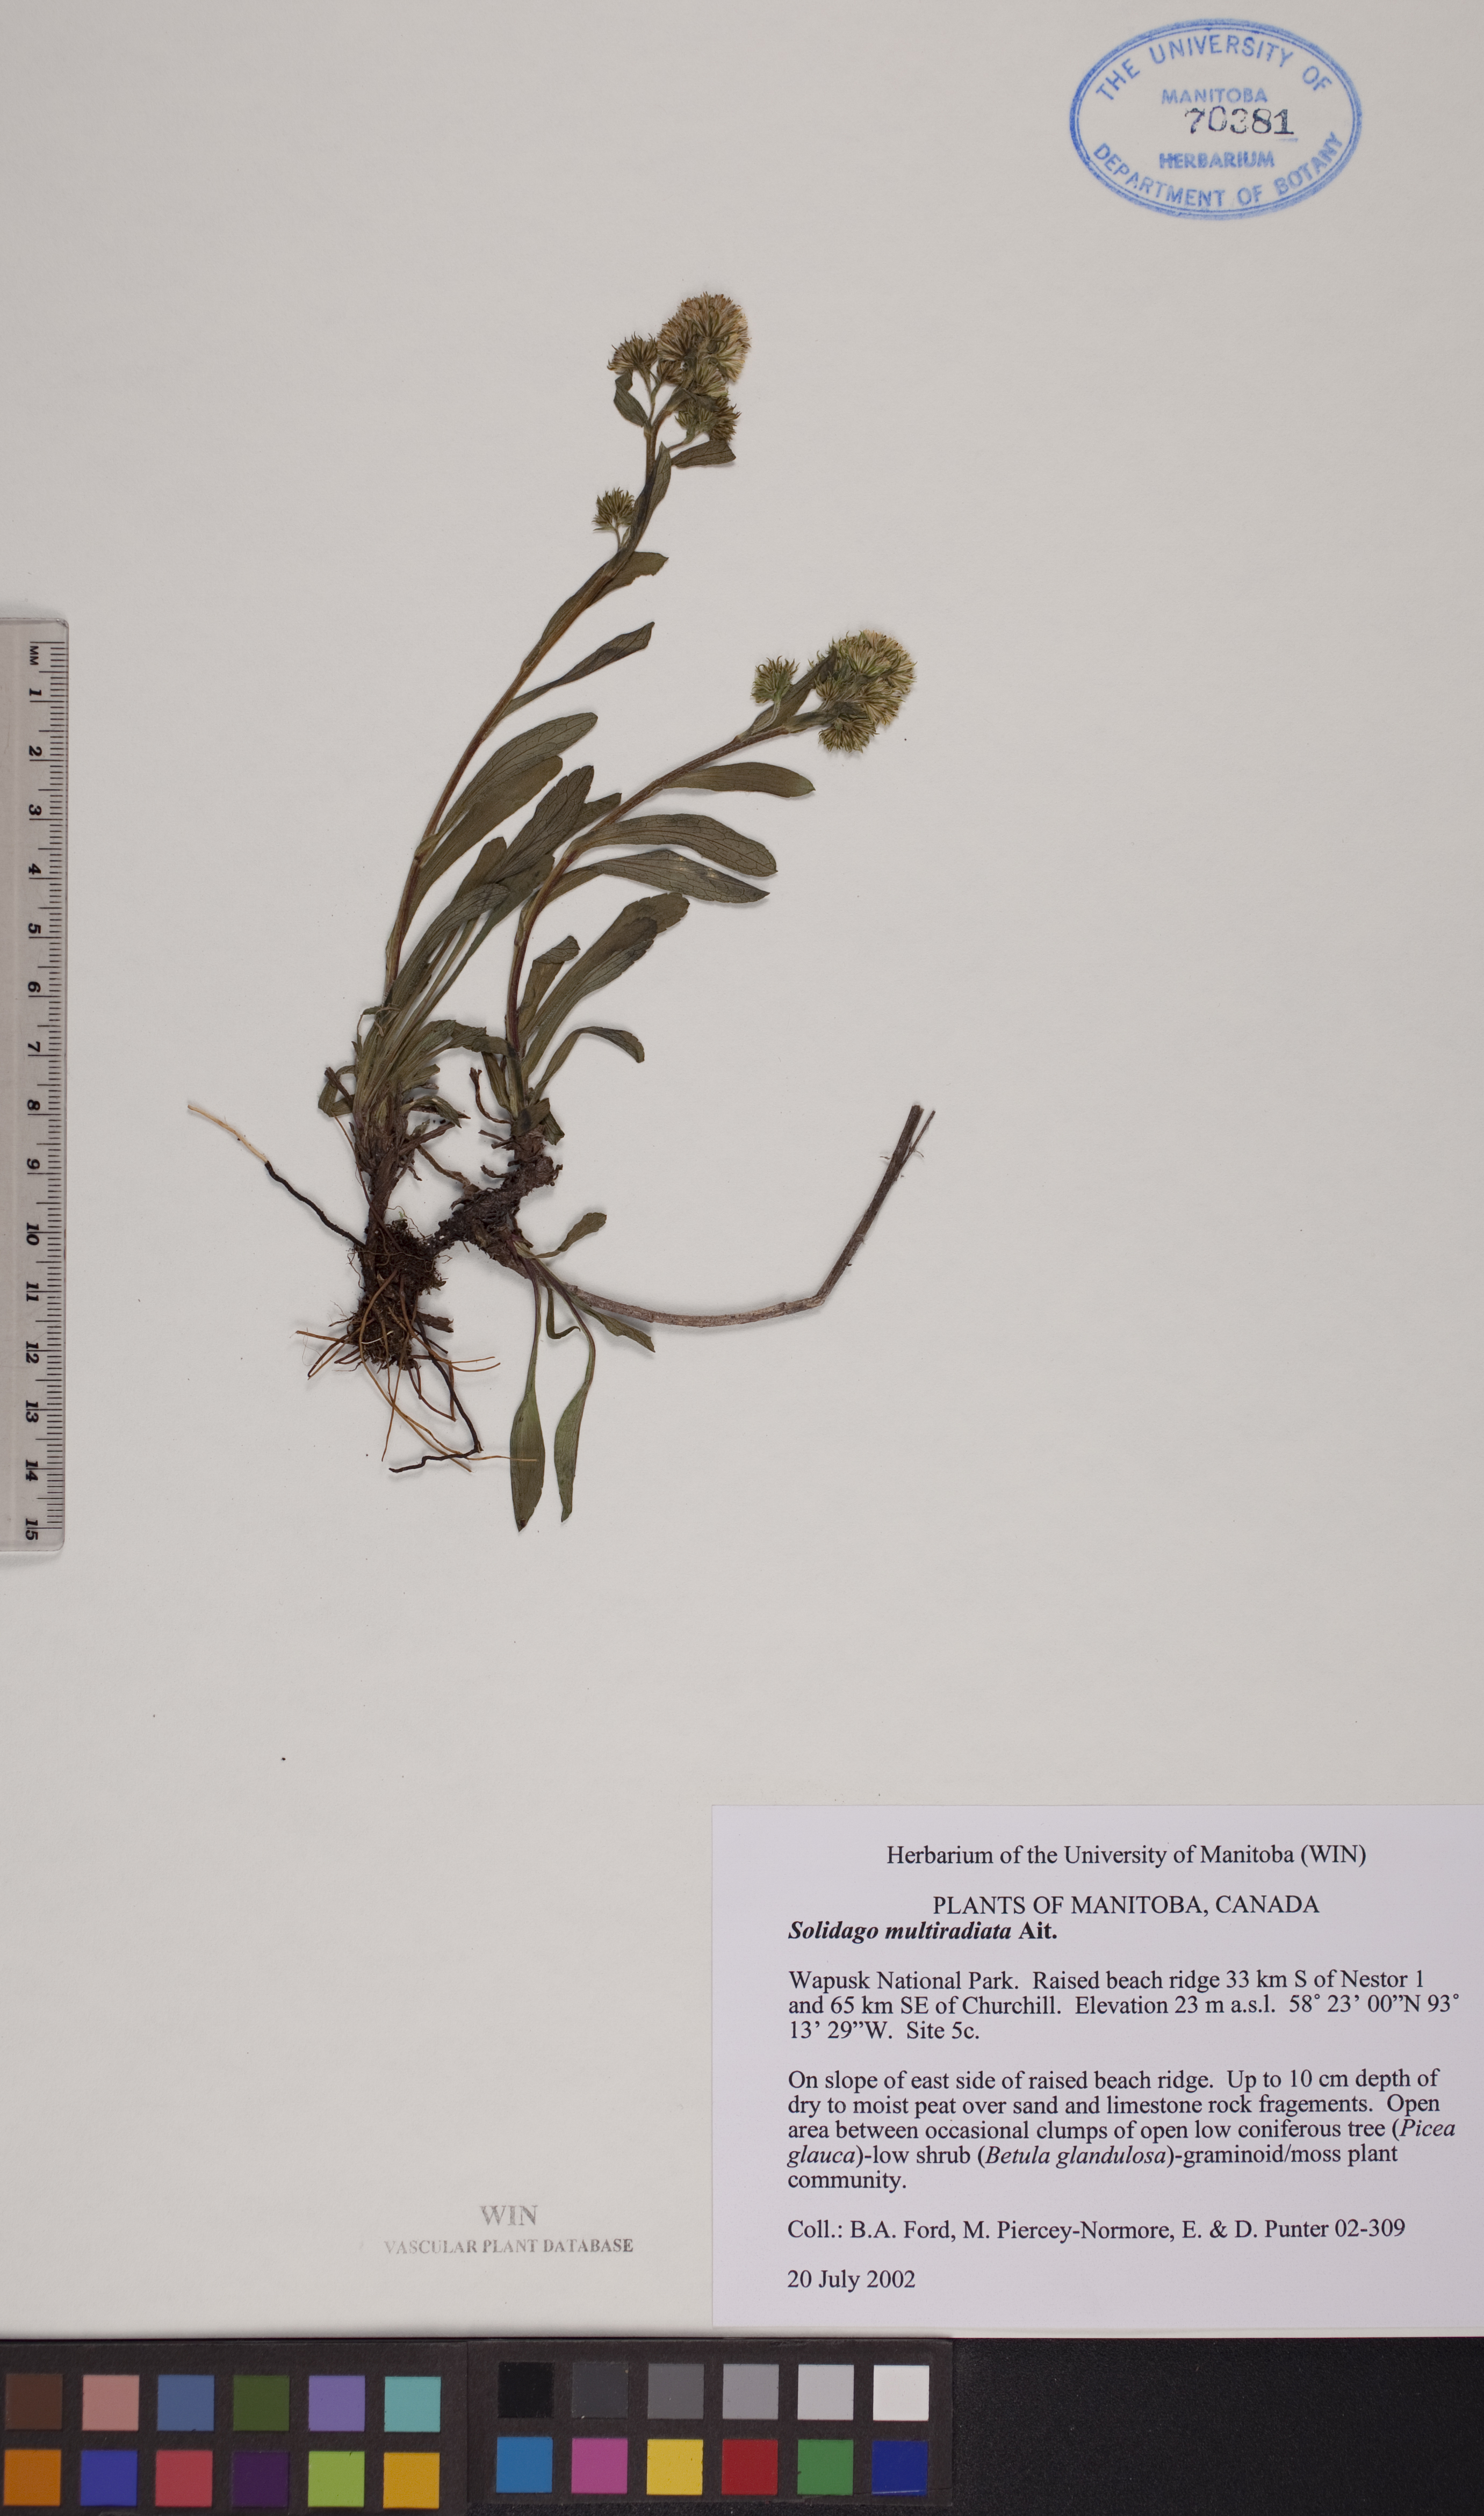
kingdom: Plantae
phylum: Tracheophyta
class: Magnoliopsida
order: Asterales
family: Asteraceae
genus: Solidago
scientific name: Solidago multiradiata
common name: Northern goldenrod
